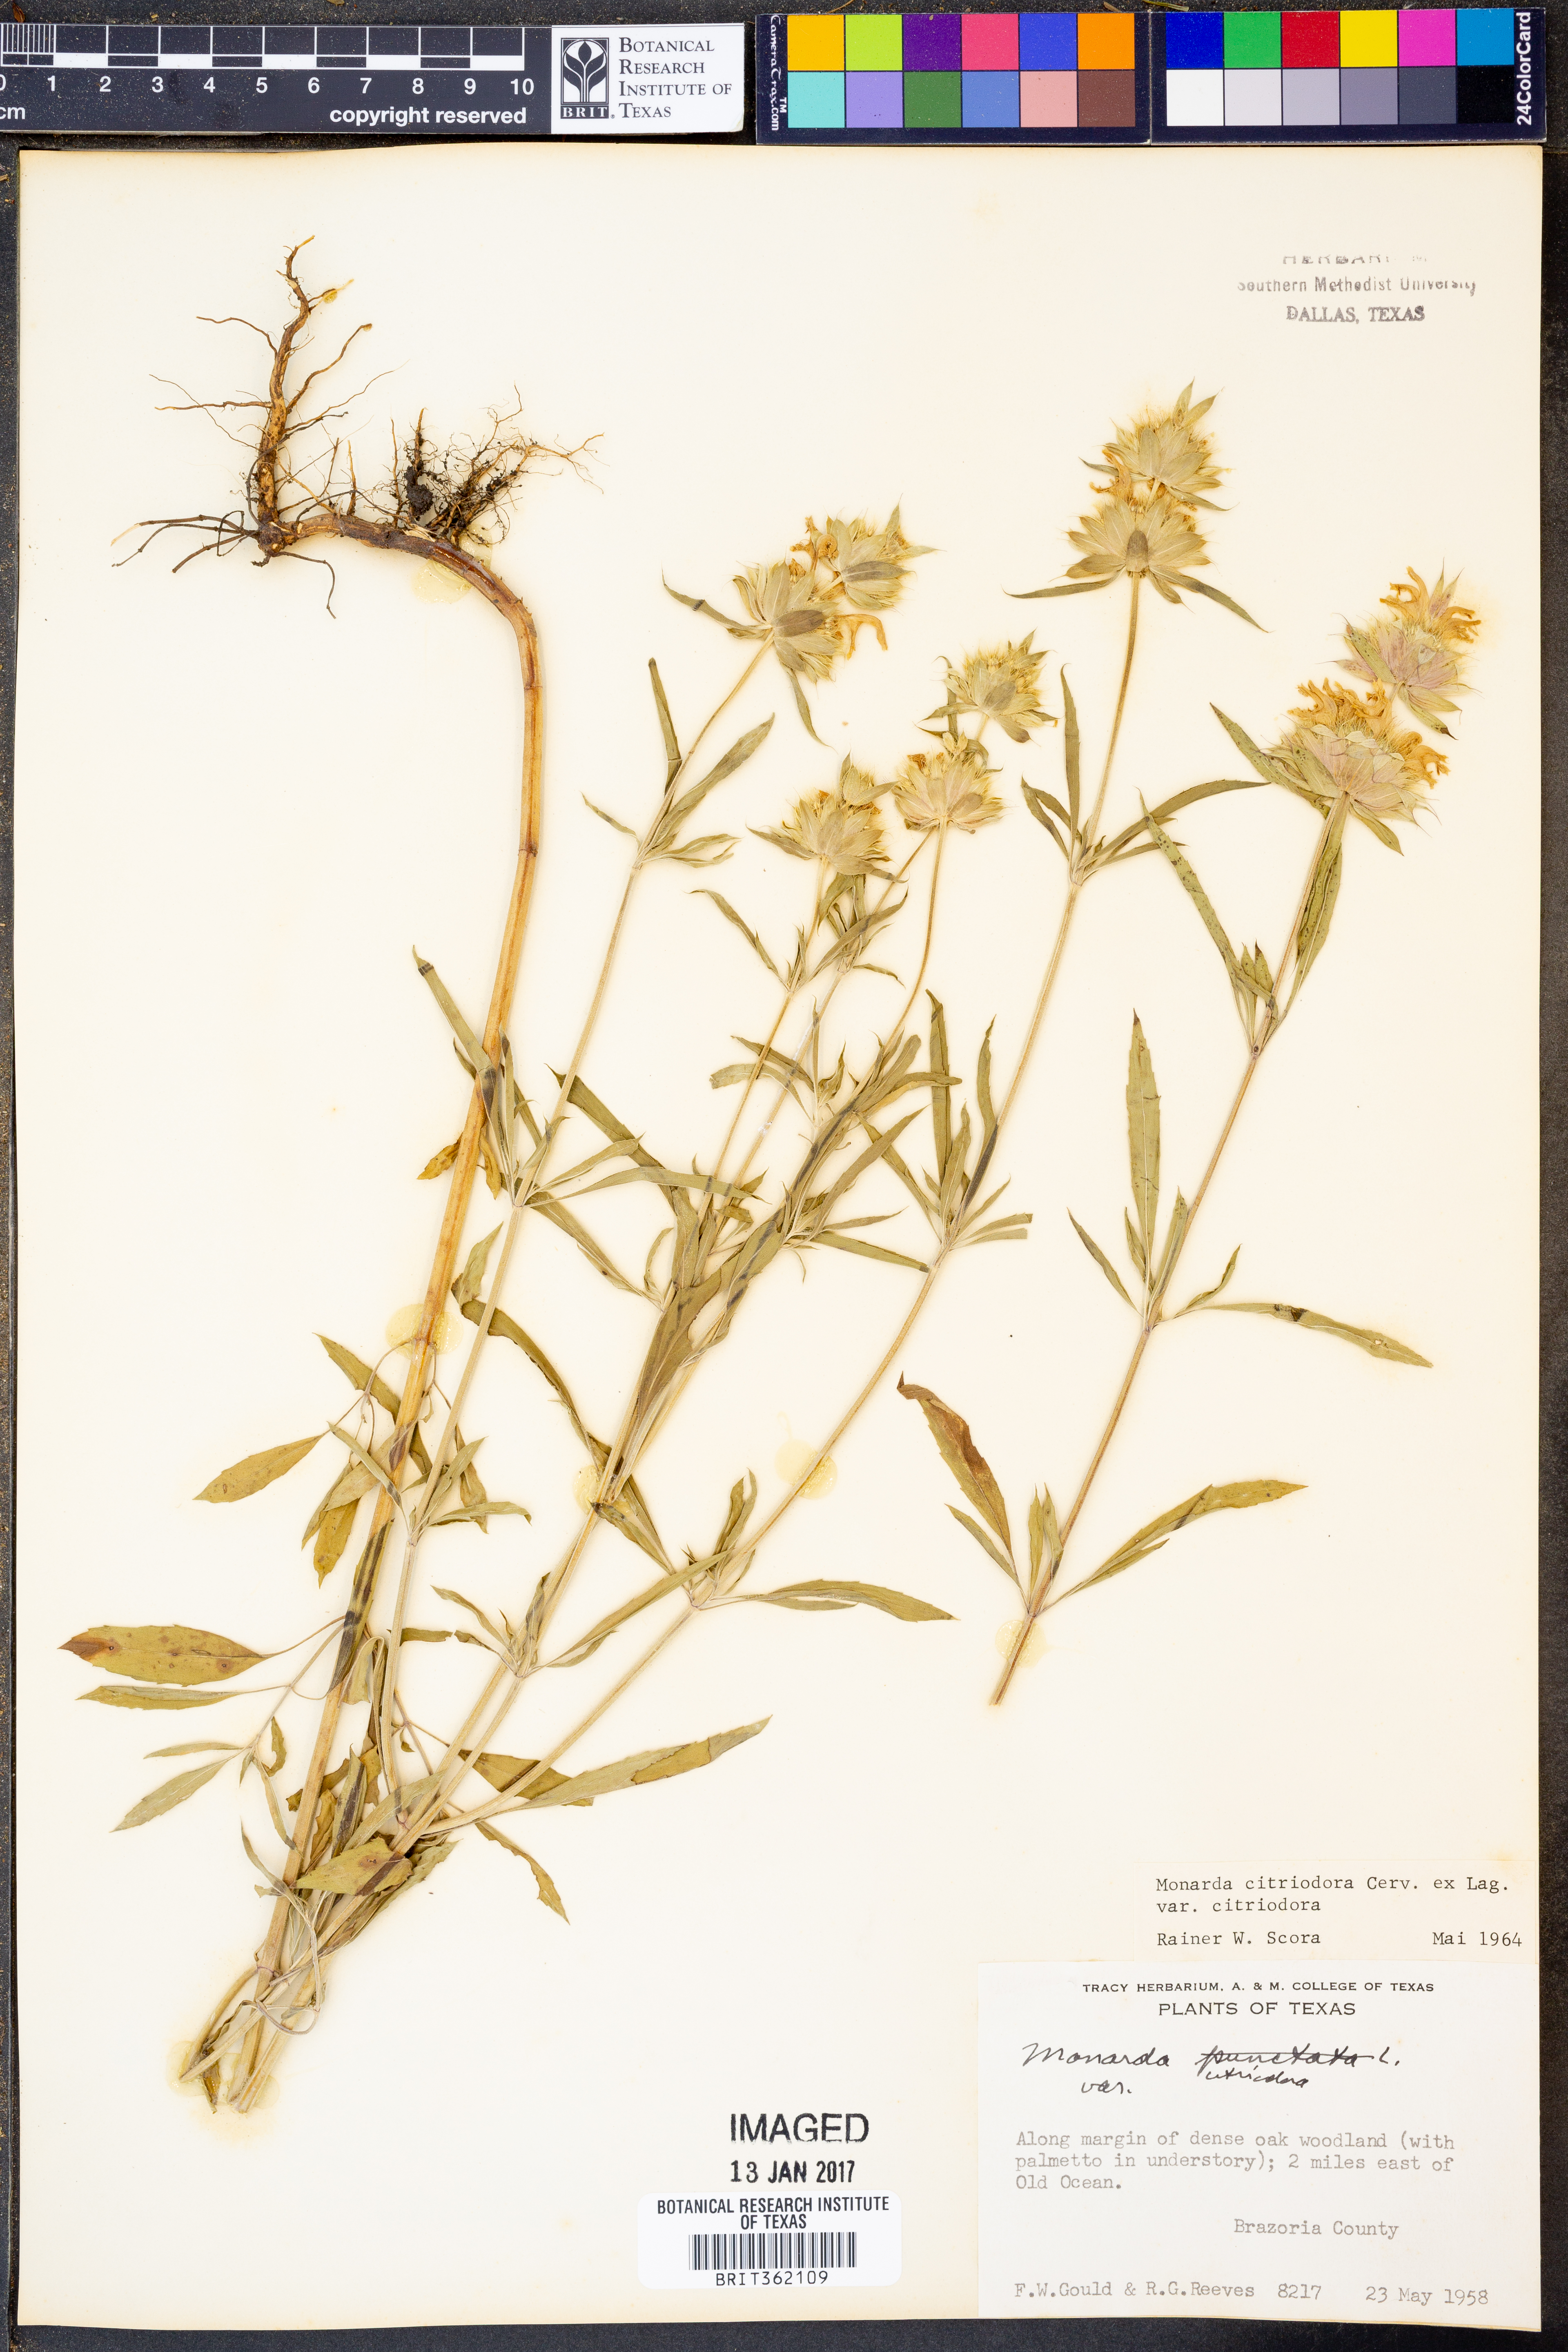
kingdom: Plantae
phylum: Tracheophyta
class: Magnoliopsida
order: Lamiales
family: Lamiaceae
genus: Monarda
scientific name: Monarda citriodora
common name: Lemon beebalm
